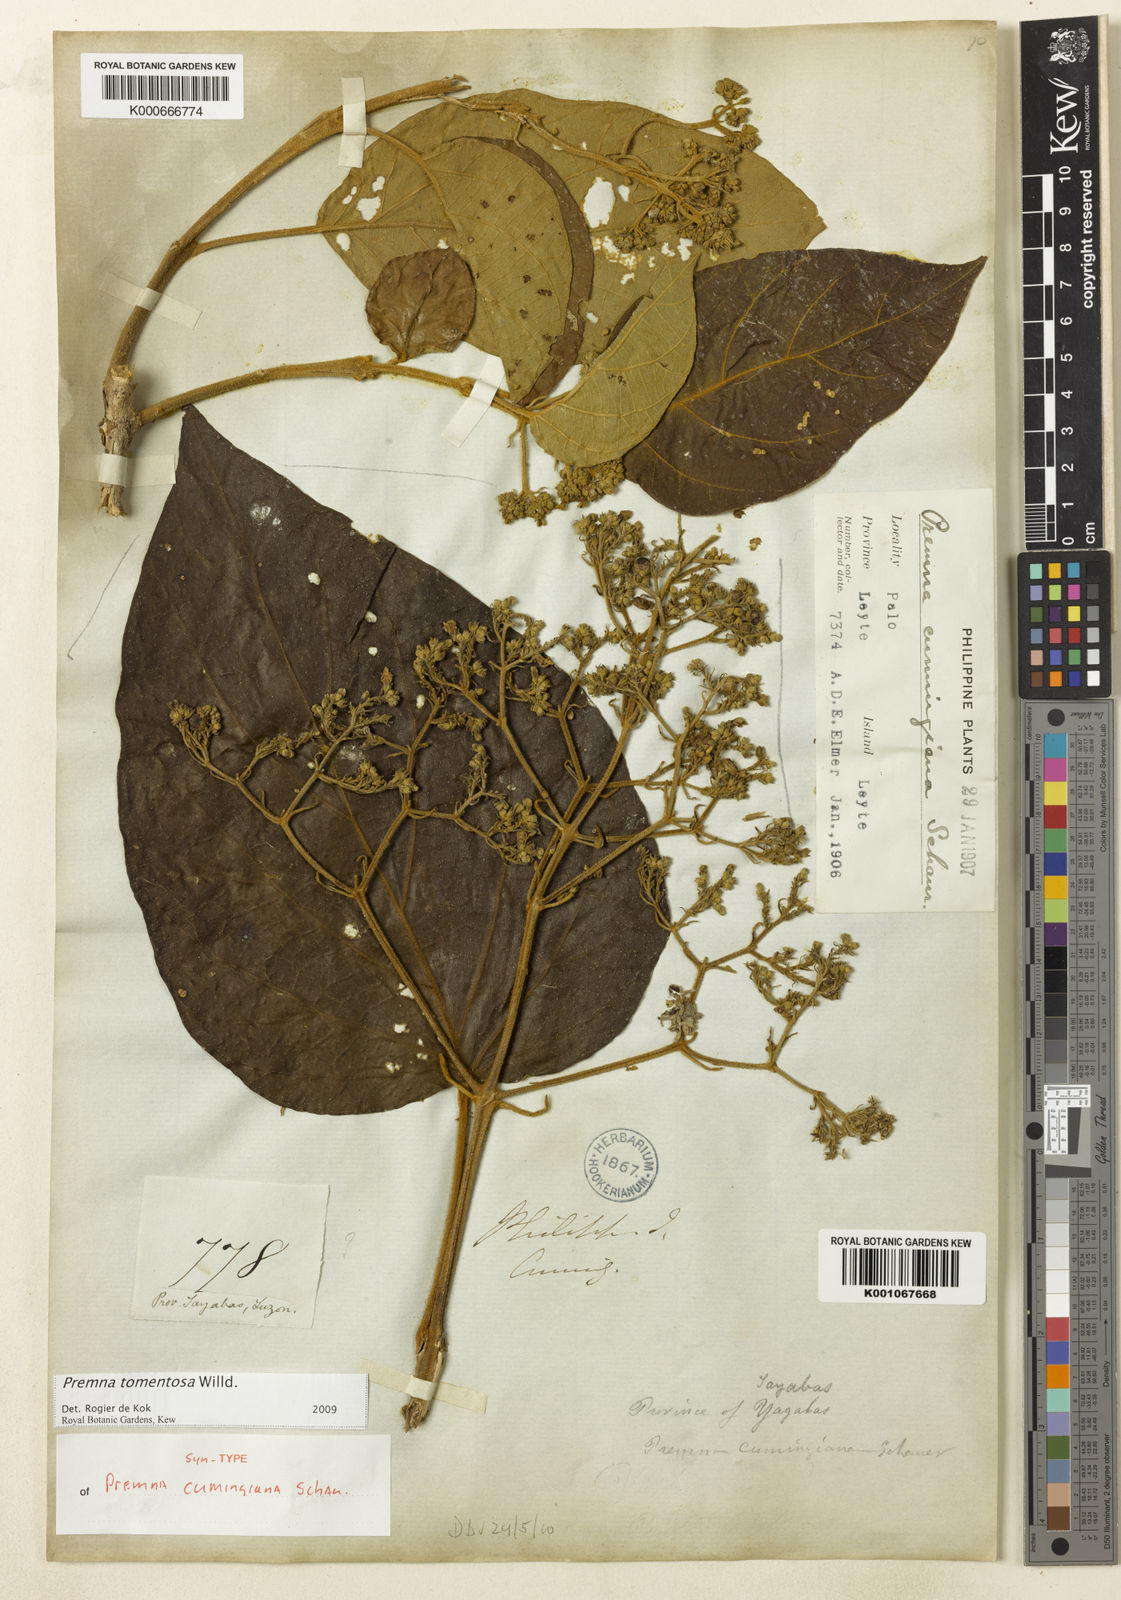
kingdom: Plantae
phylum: Tracheophyta
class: Magnoliopsida
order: Lamiales
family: Lamiaceae
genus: Premna
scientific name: Premna tomentosa
